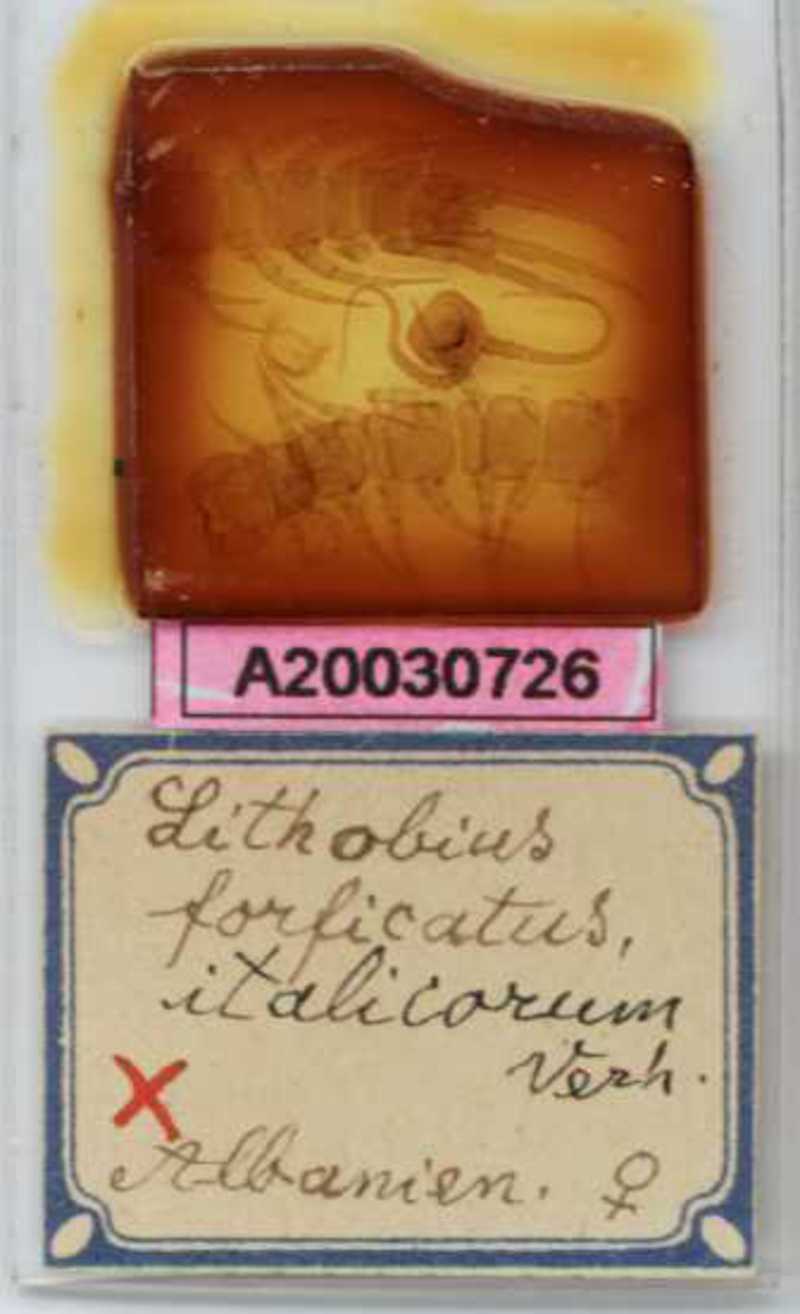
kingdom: Animalia
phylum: Arthropoda
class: Chilopoda
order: Lithobiomorpha
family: Lithobiidae
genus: Lithobius
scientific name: Lithobius forficatus
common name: Centipede
